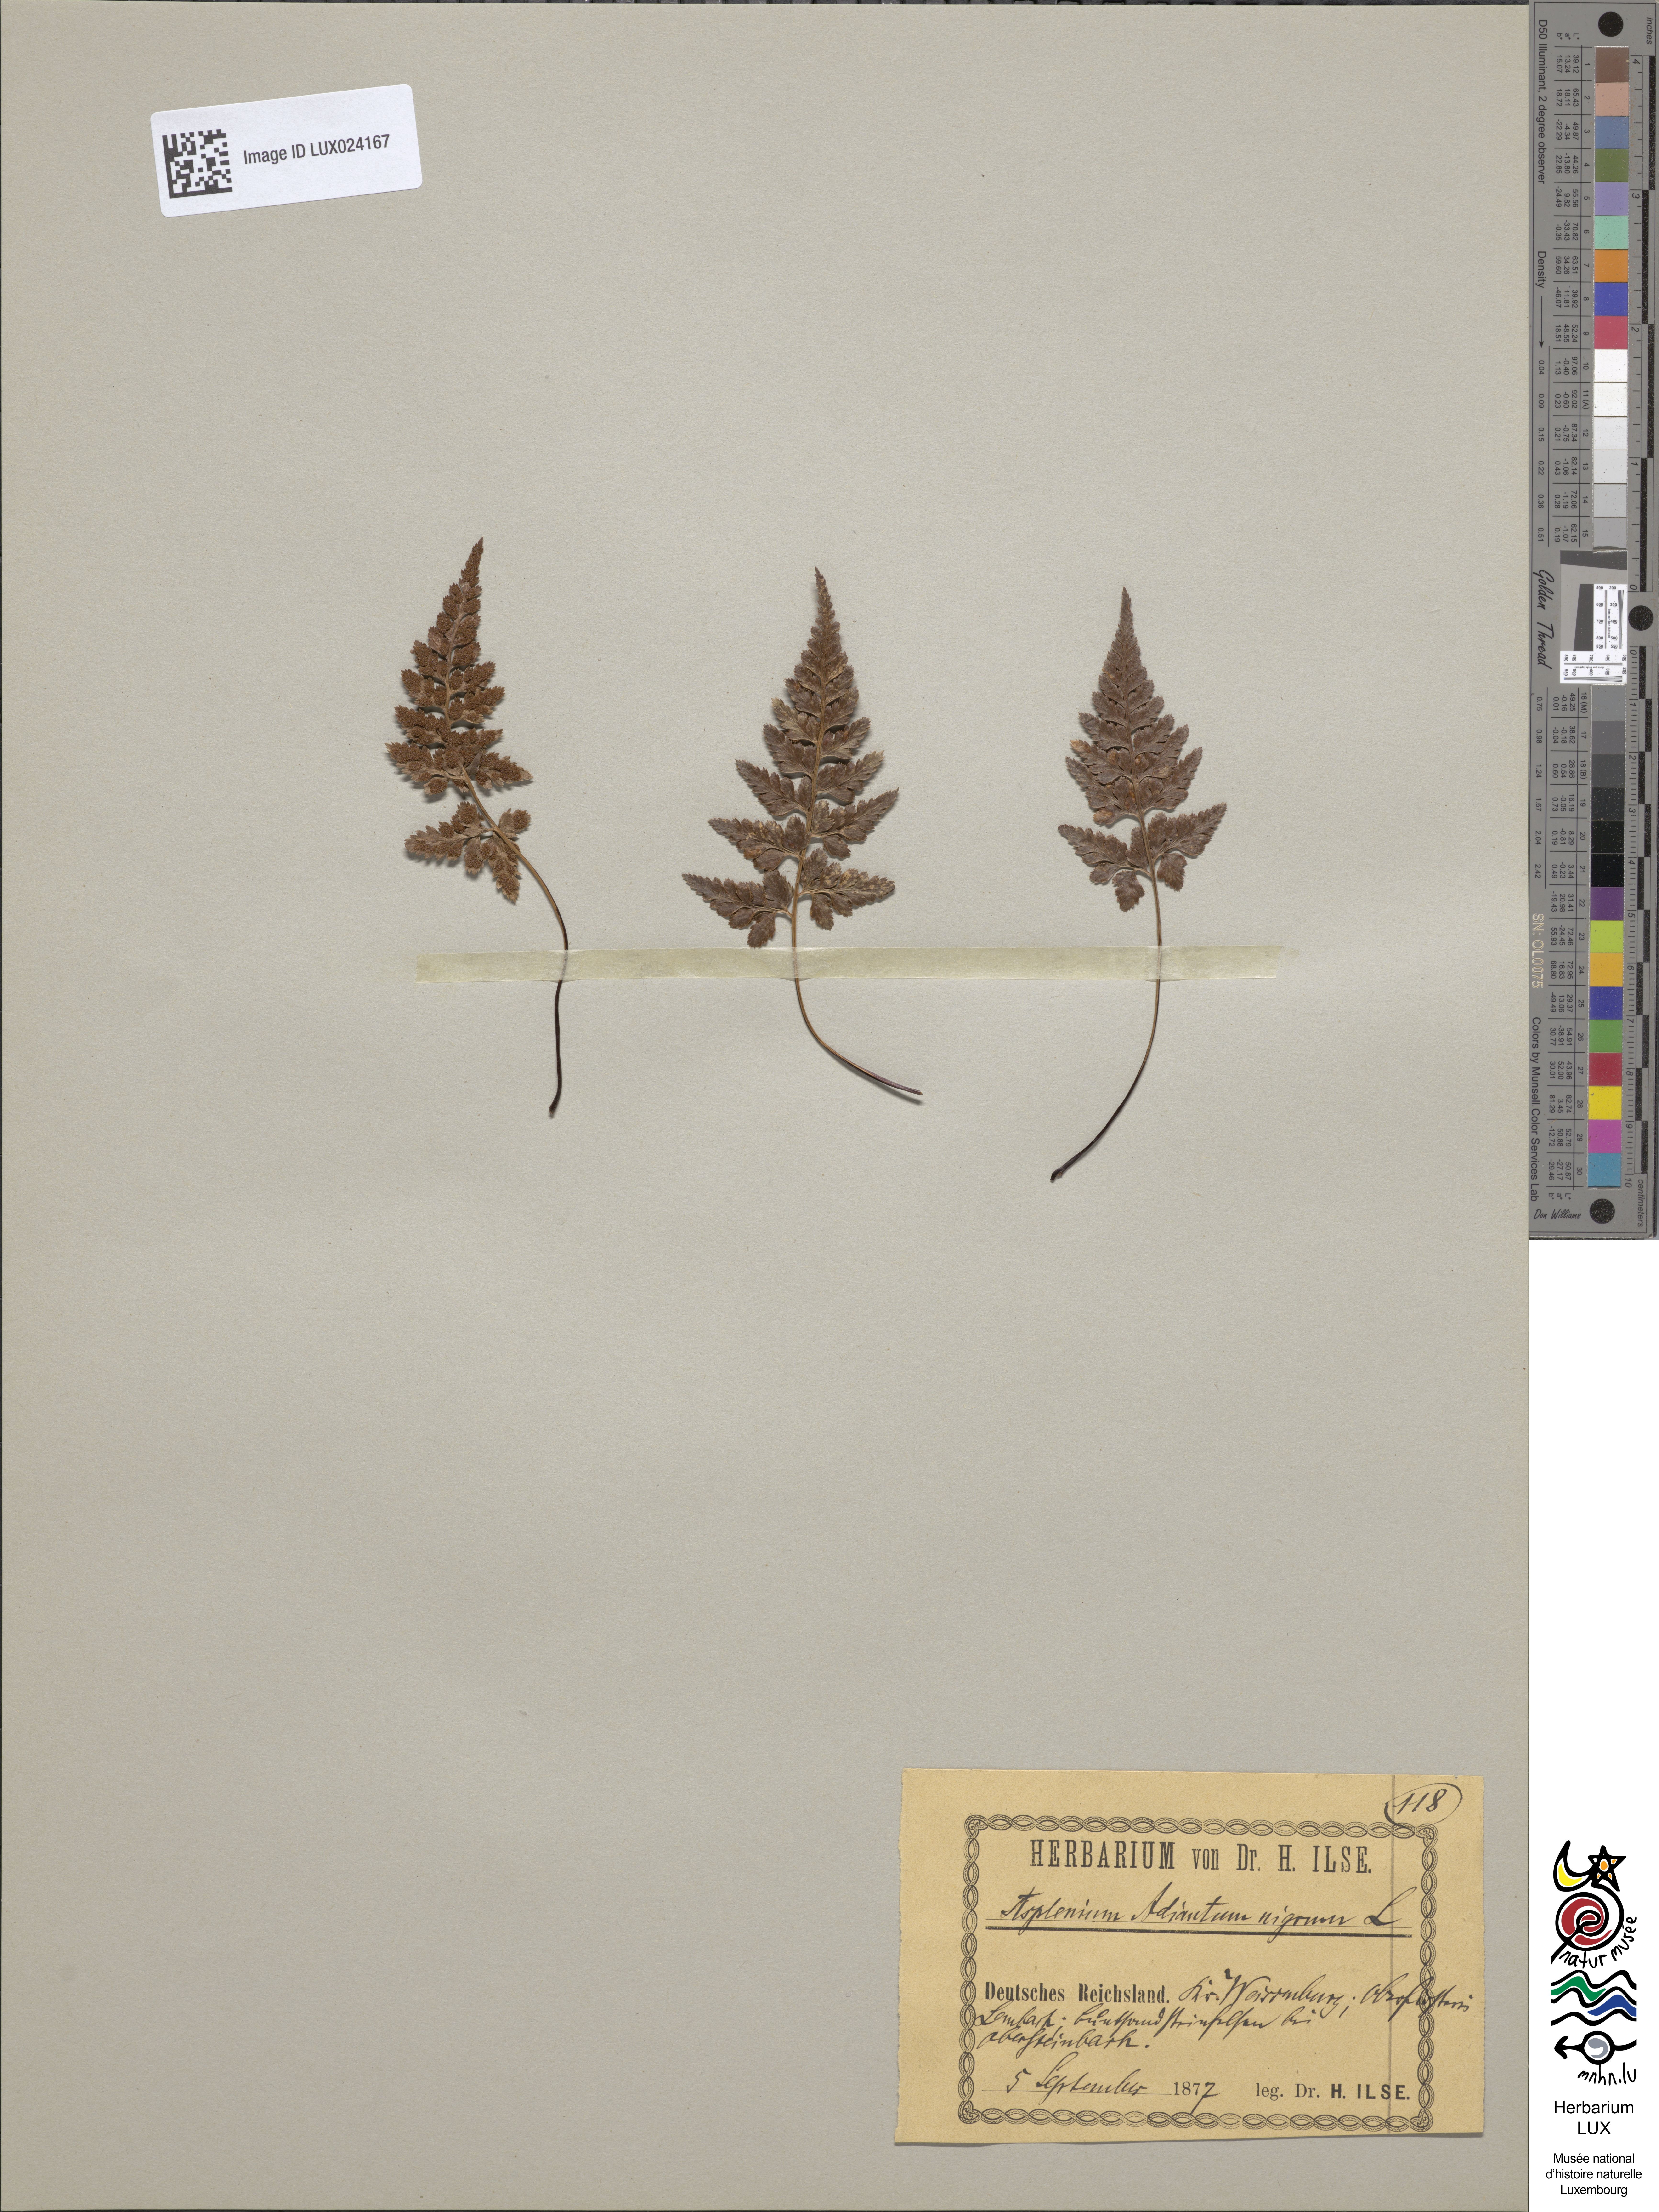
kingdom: Plantae
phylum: Tracheophyta
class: Polypodiopsida
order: Polypodiales
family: Aspleniaceae
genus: Asplenium
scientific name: Asplenium adiantum-nigrum
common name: Black spleenwort
